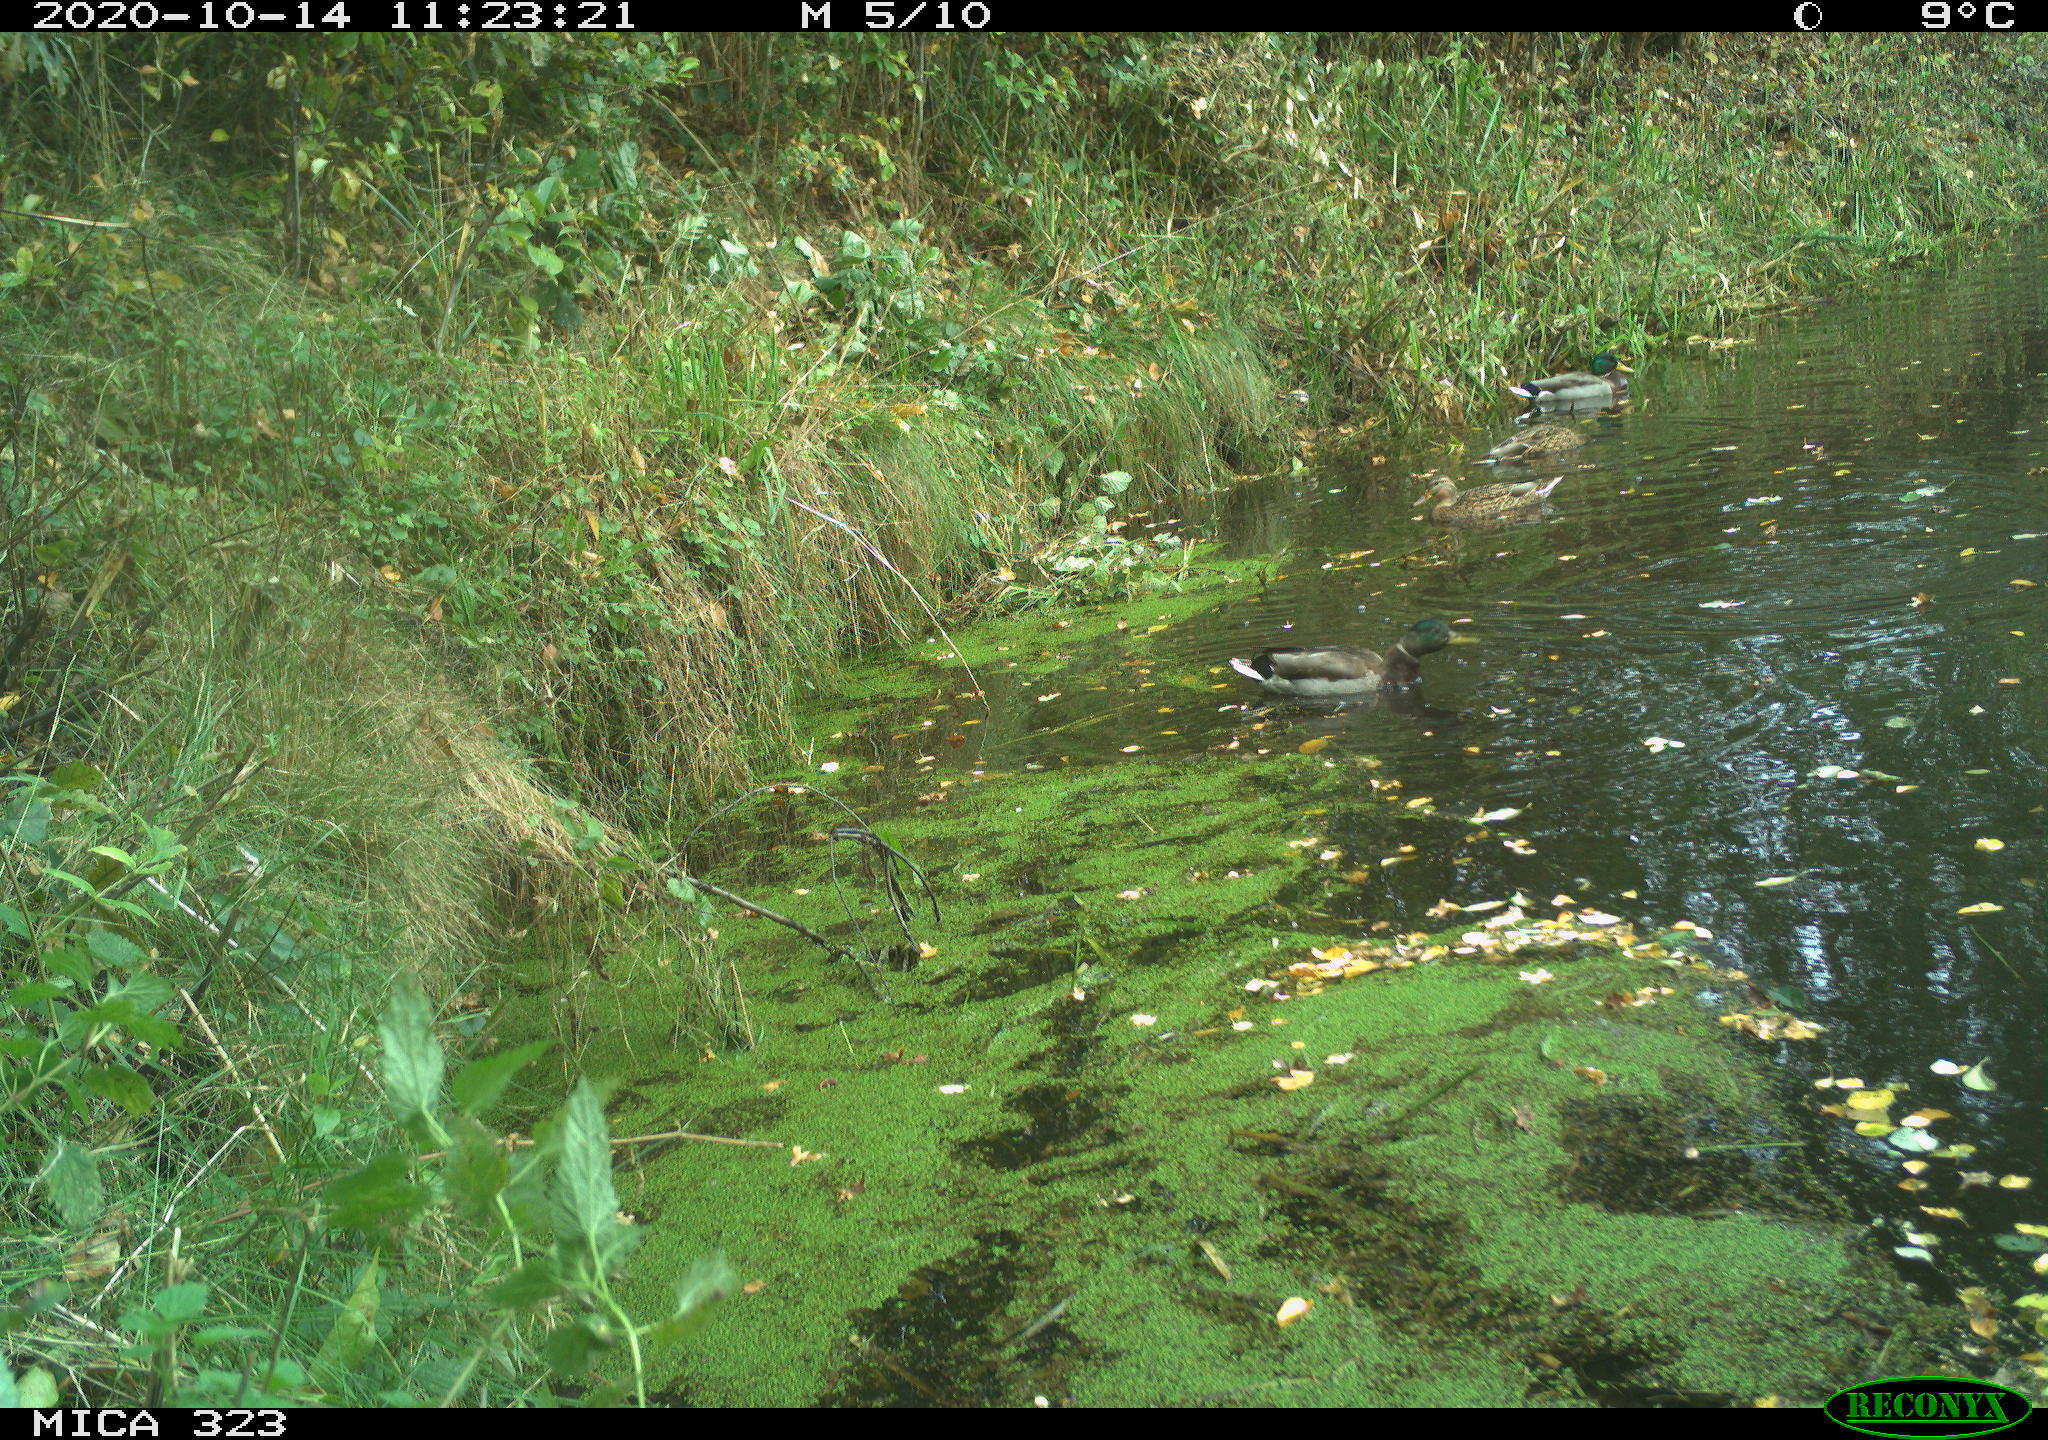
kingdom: Animalia
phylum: Chordata
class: Aves
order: Anseriformes
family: Anatidae
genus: Anas
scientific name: Anas platyrhynchos
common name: Mallard
